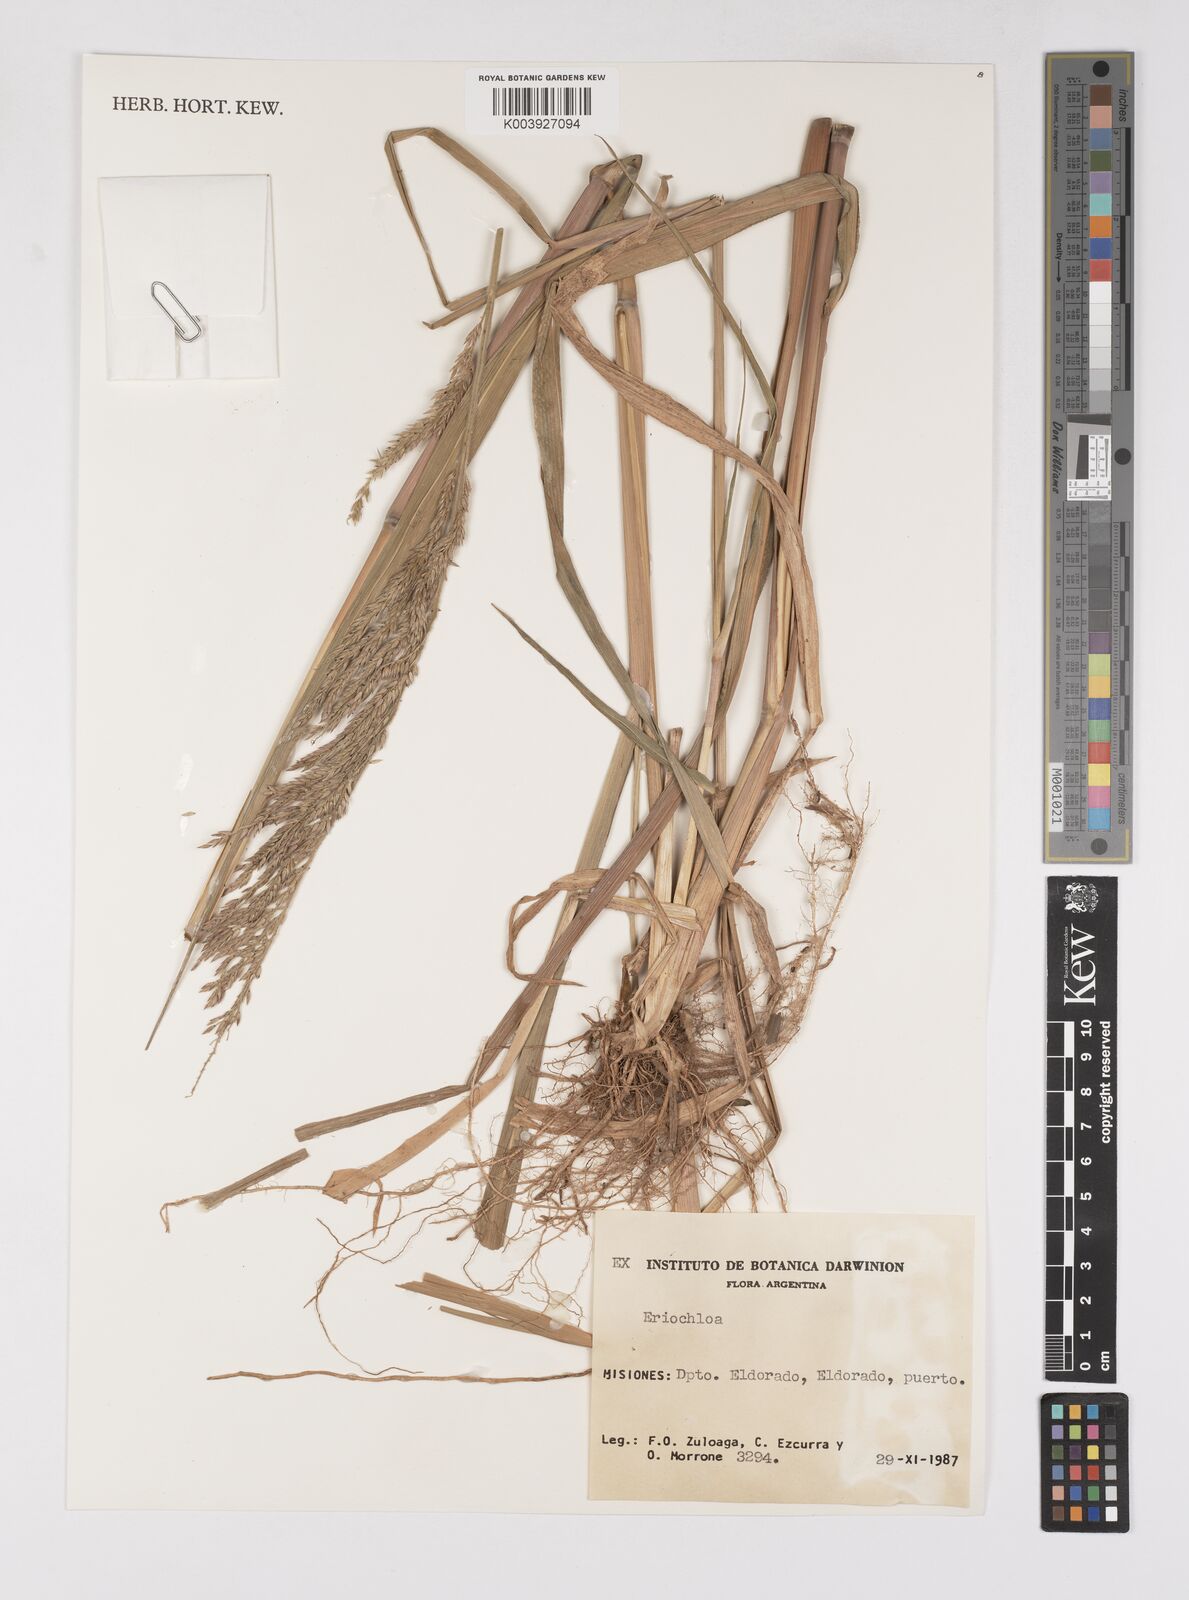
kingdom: Plantae
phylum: Tracheophyta
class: Liliopsida
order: Poales
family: Poaceae
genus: Eriochloa
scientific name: Eriochloa punctata
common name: Louisiana cupgrass
